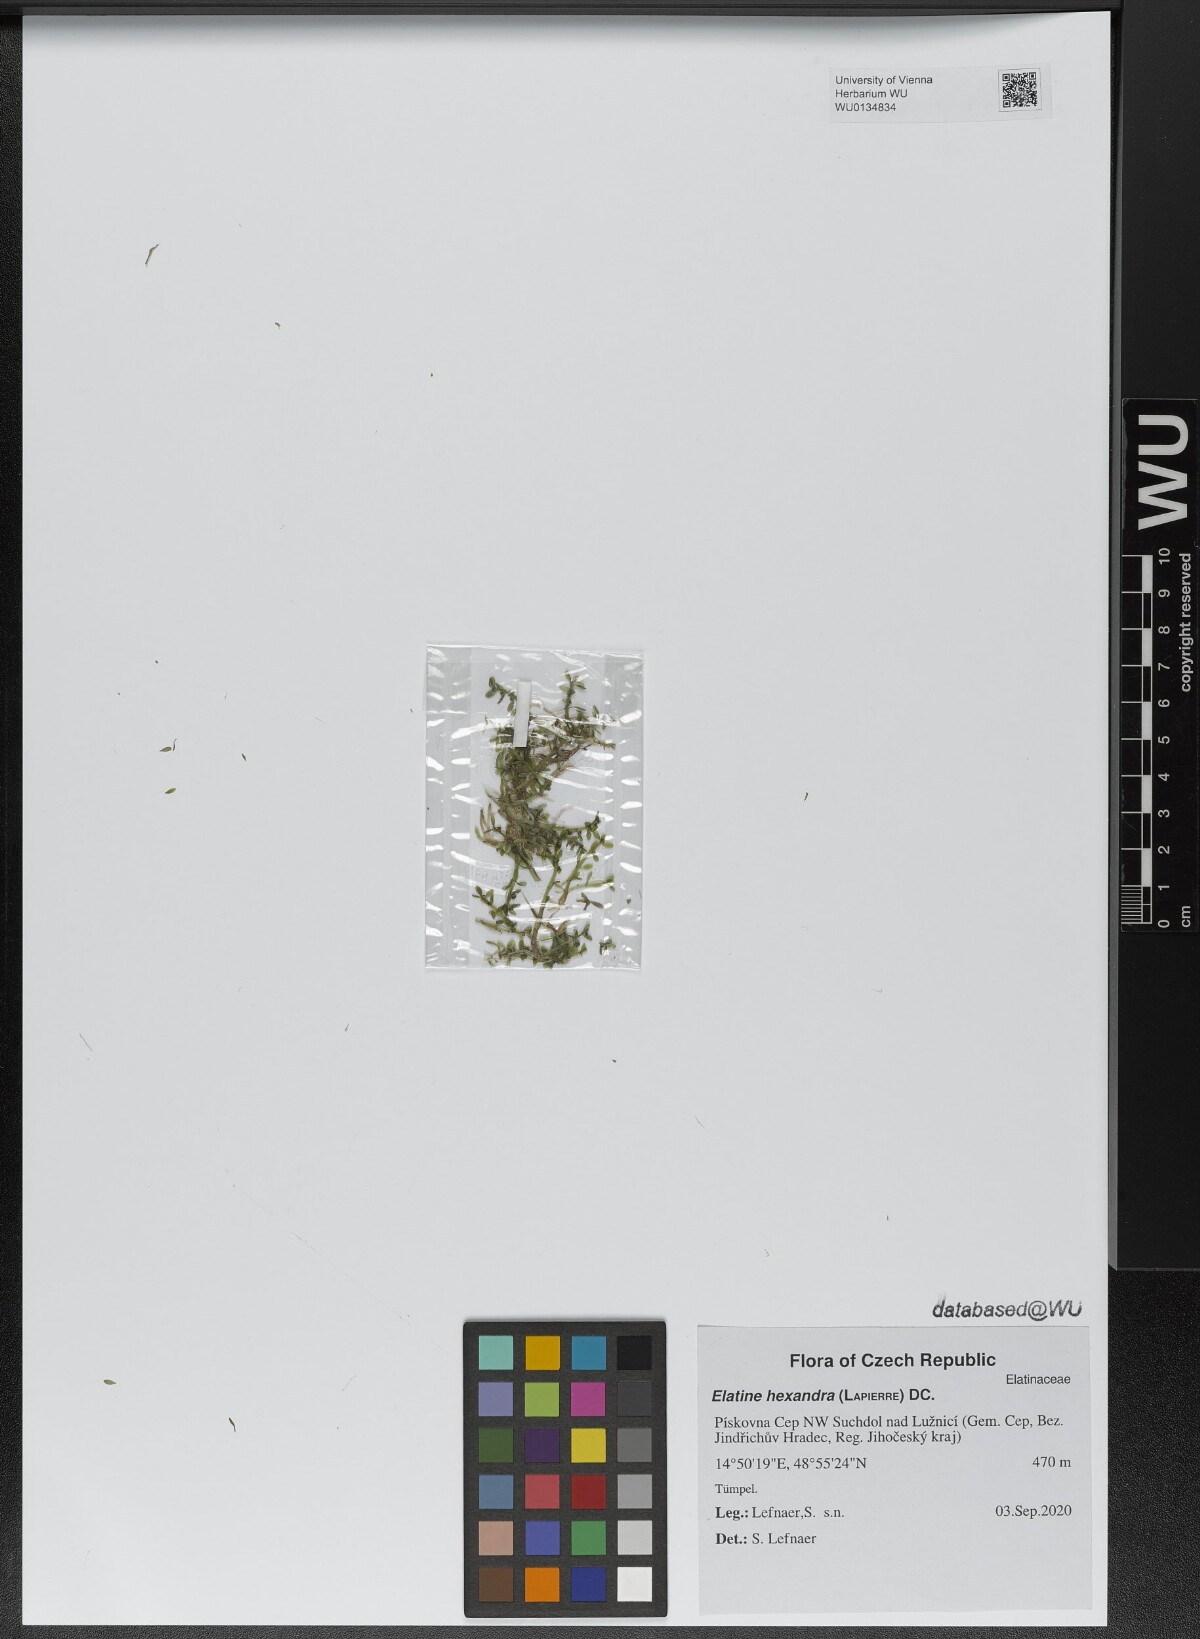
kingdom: Plantae
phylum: Tracheophyta
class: Magnoliopsida
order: Malpighiales
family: Elatinaceae
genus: Elatine
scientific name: Elatine hexandra
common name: Six-stamened waterwort
